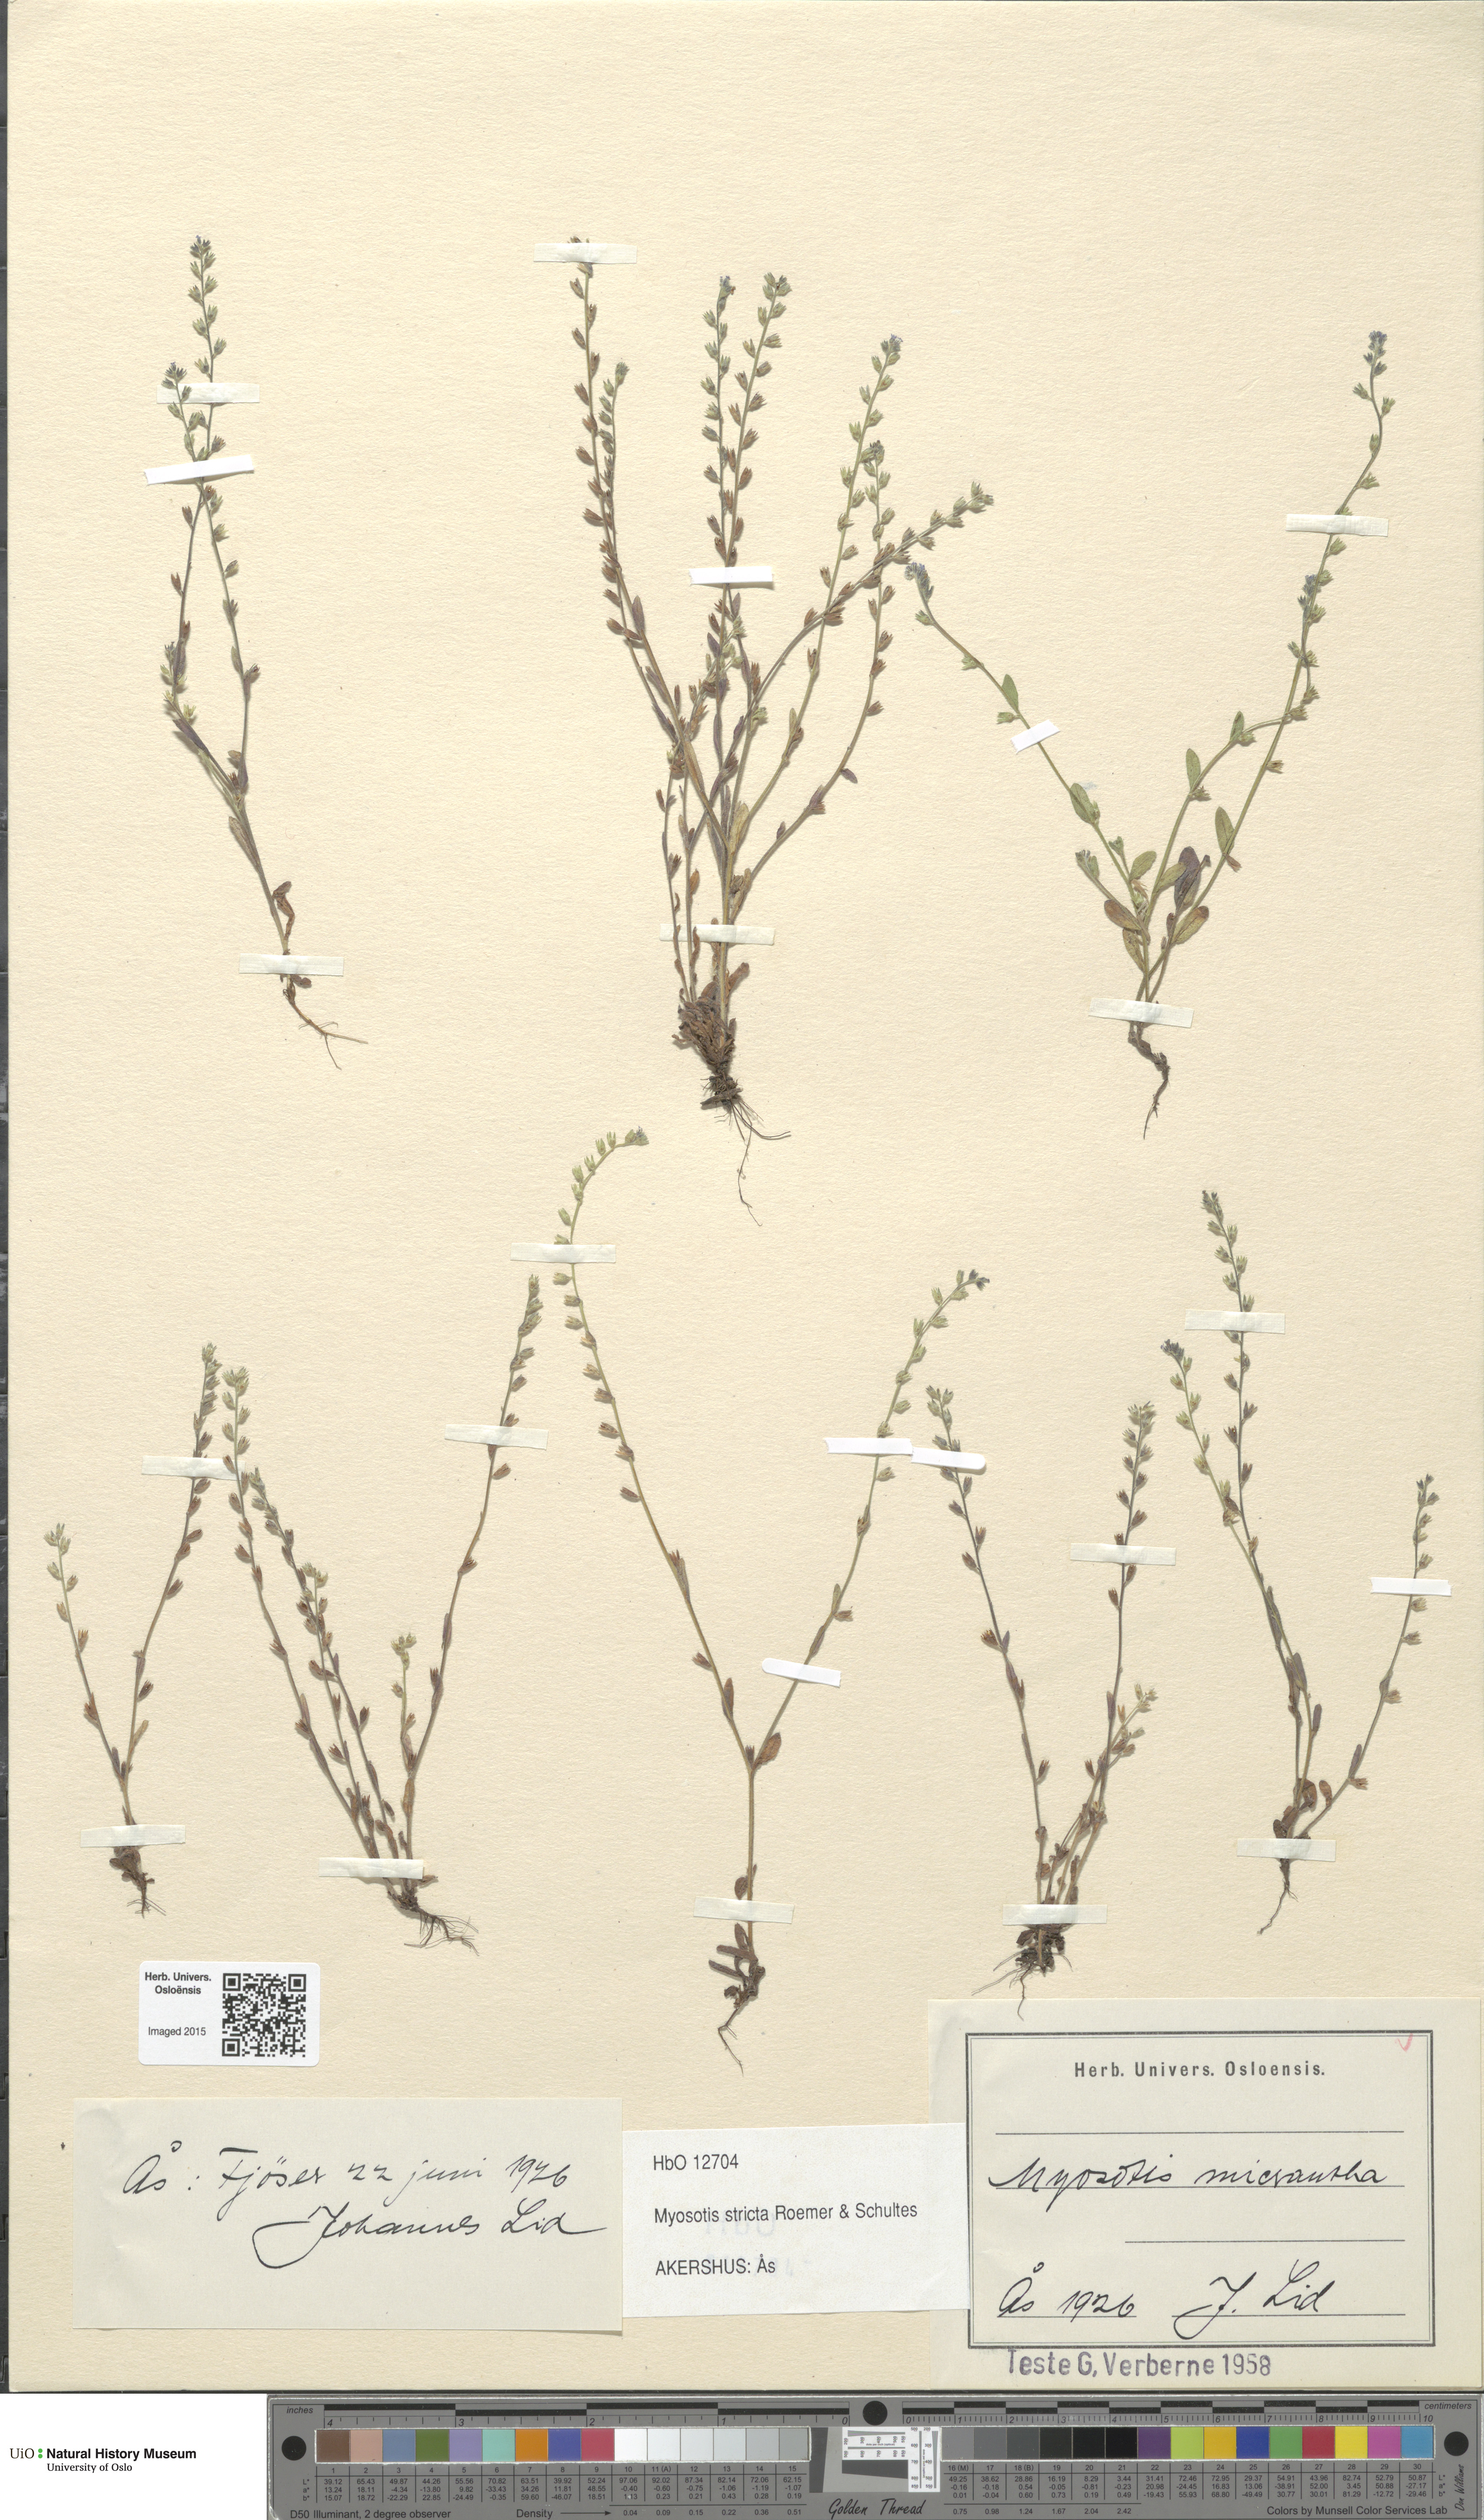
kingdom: Plantae
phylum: Tracheophyta
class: Magnoliopsida
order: Boraginales
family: Boraginaceae
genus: Myosotis
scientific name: Myosotis stricta
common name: Strict forget-me-not
